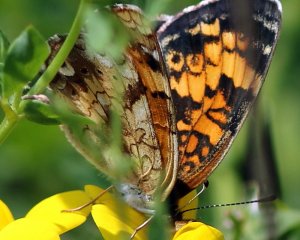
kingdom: Animalia
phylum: Arthropoda
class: Insecta
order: Lepidoptera
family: Nymphalidae
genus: Phyciodes
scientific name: Phyciodes tharos
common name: Pearl Crescent
